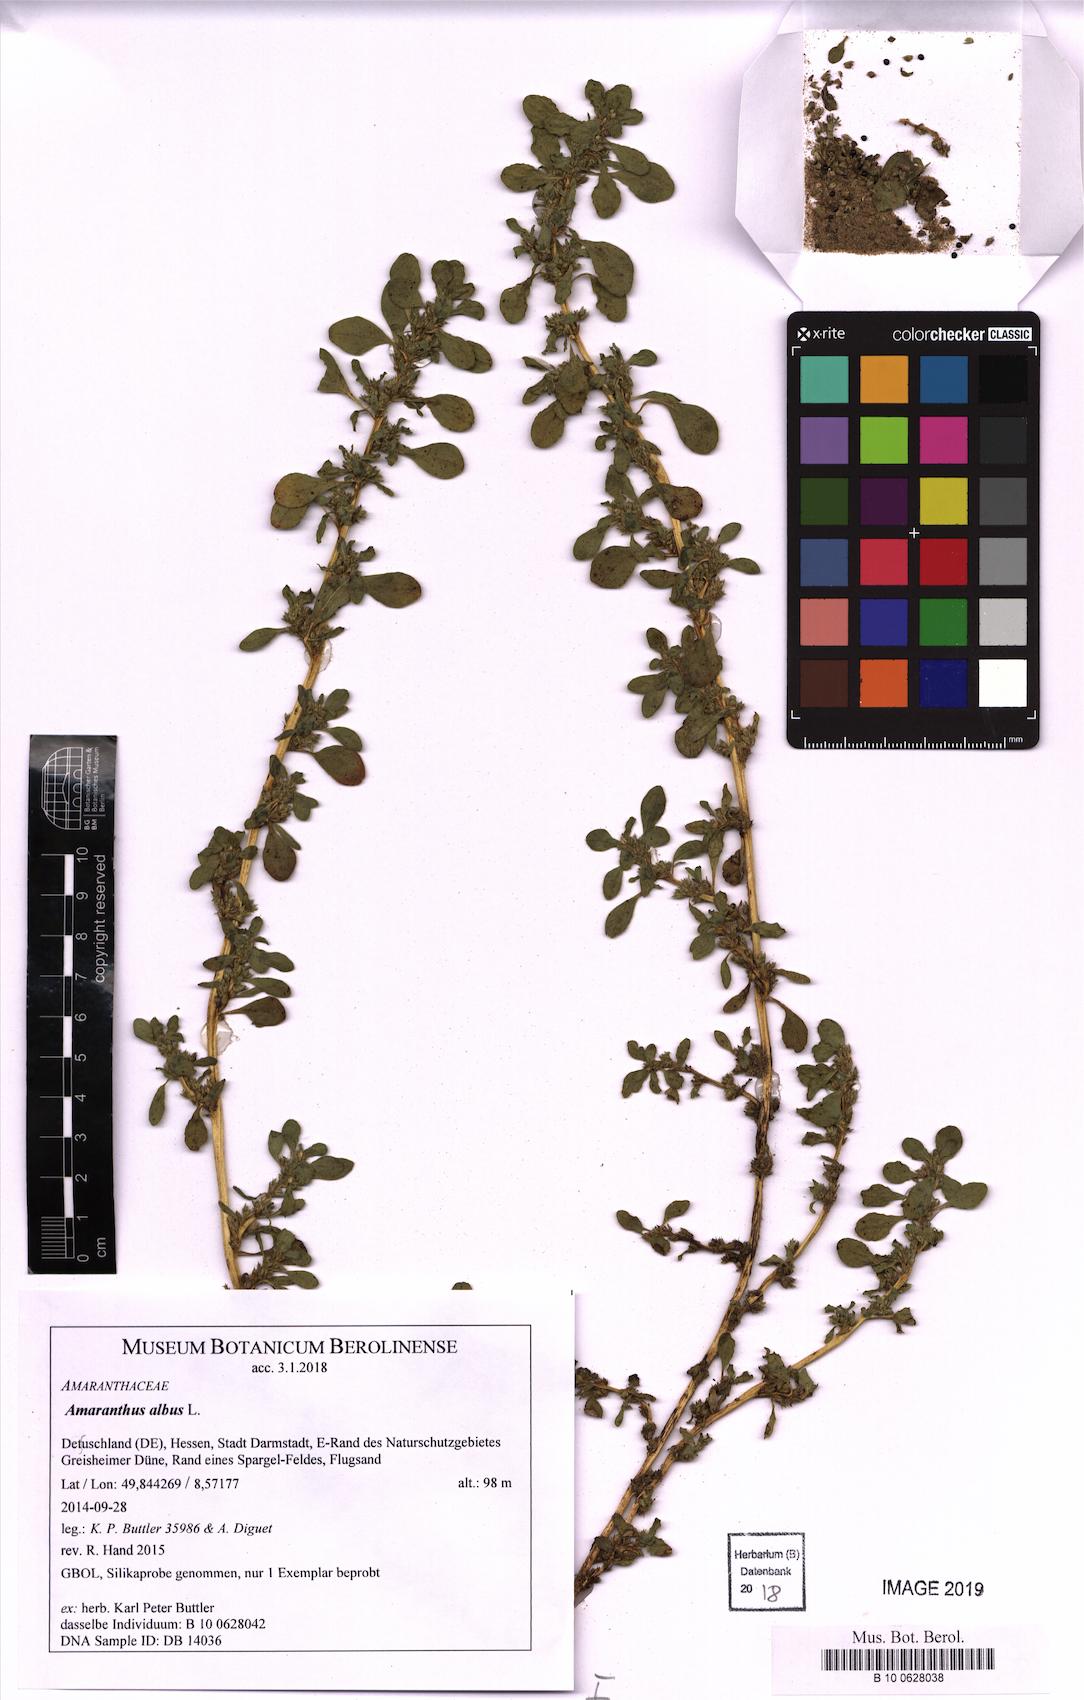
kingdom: Plantae
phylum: Tracheophyta
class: Magnoliopsida
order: Caryophyllales
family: Amaranthaceae
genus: Amaranthus
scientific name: Amaranthus albus
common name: White pigweed
